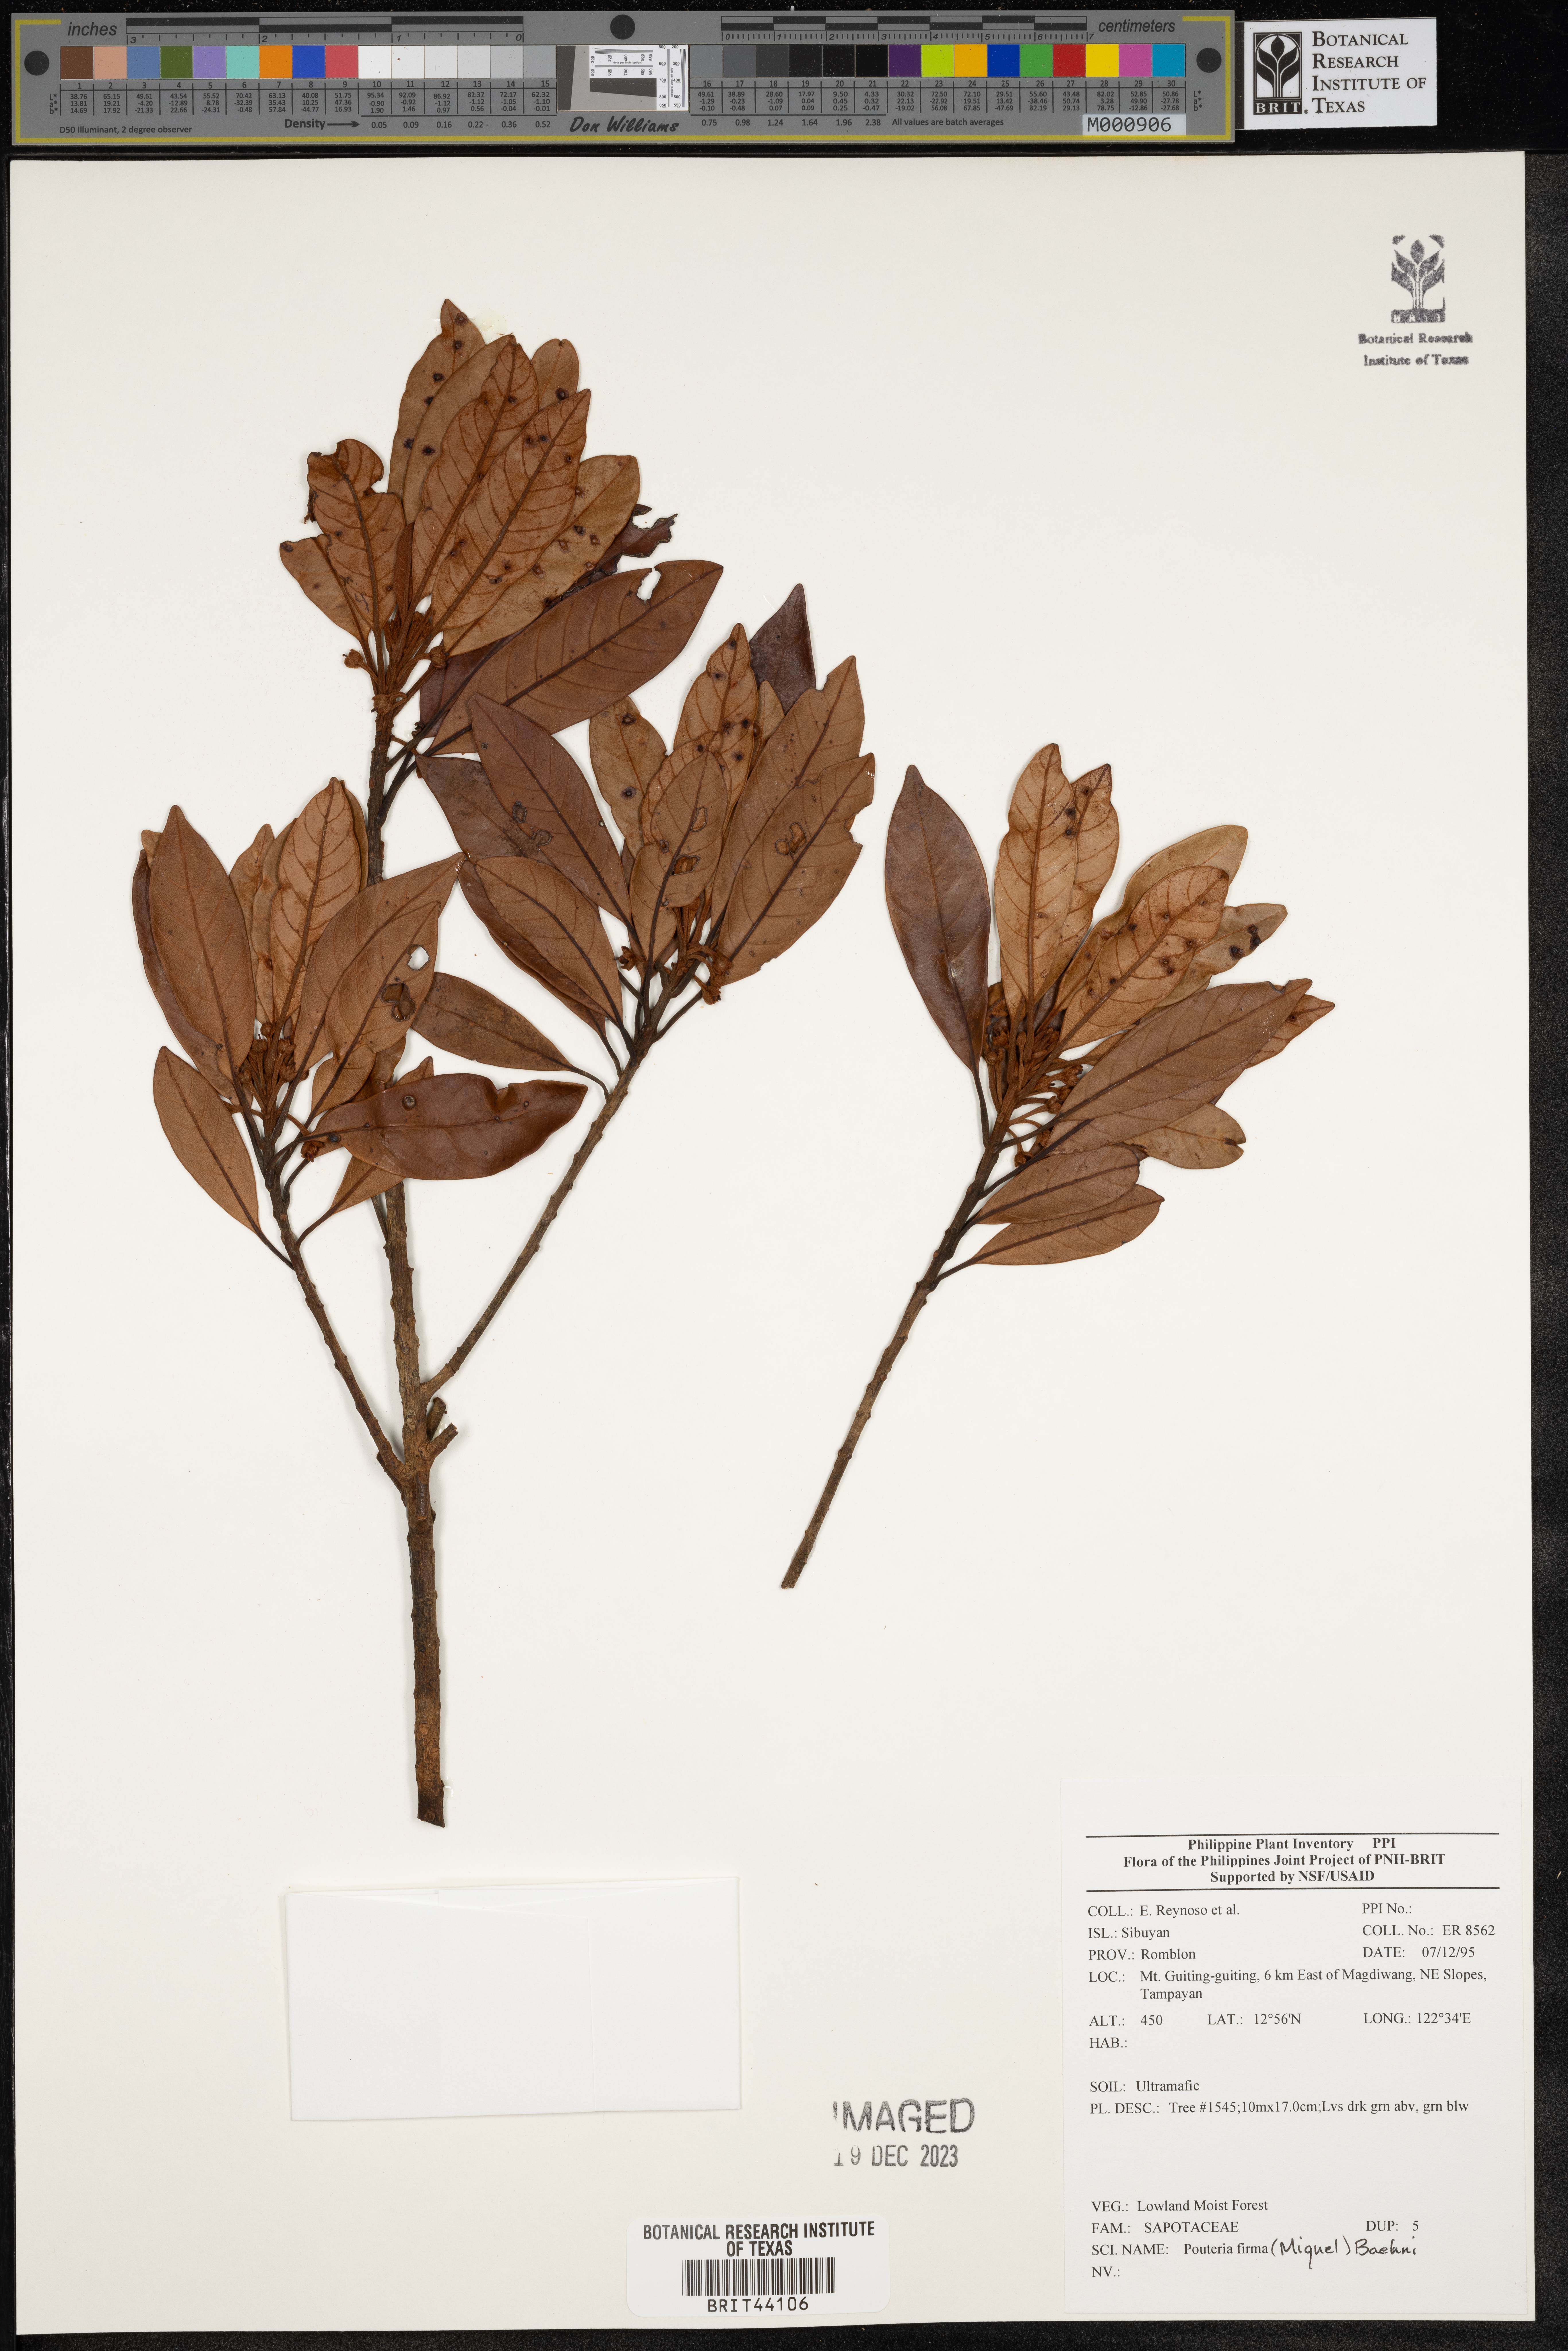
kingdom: Plantae
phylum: Tracheophyta
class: Magnoliopsida
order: Ericales
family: Sapotaceae
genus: Pleioluma
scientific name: Pleioluma firma
